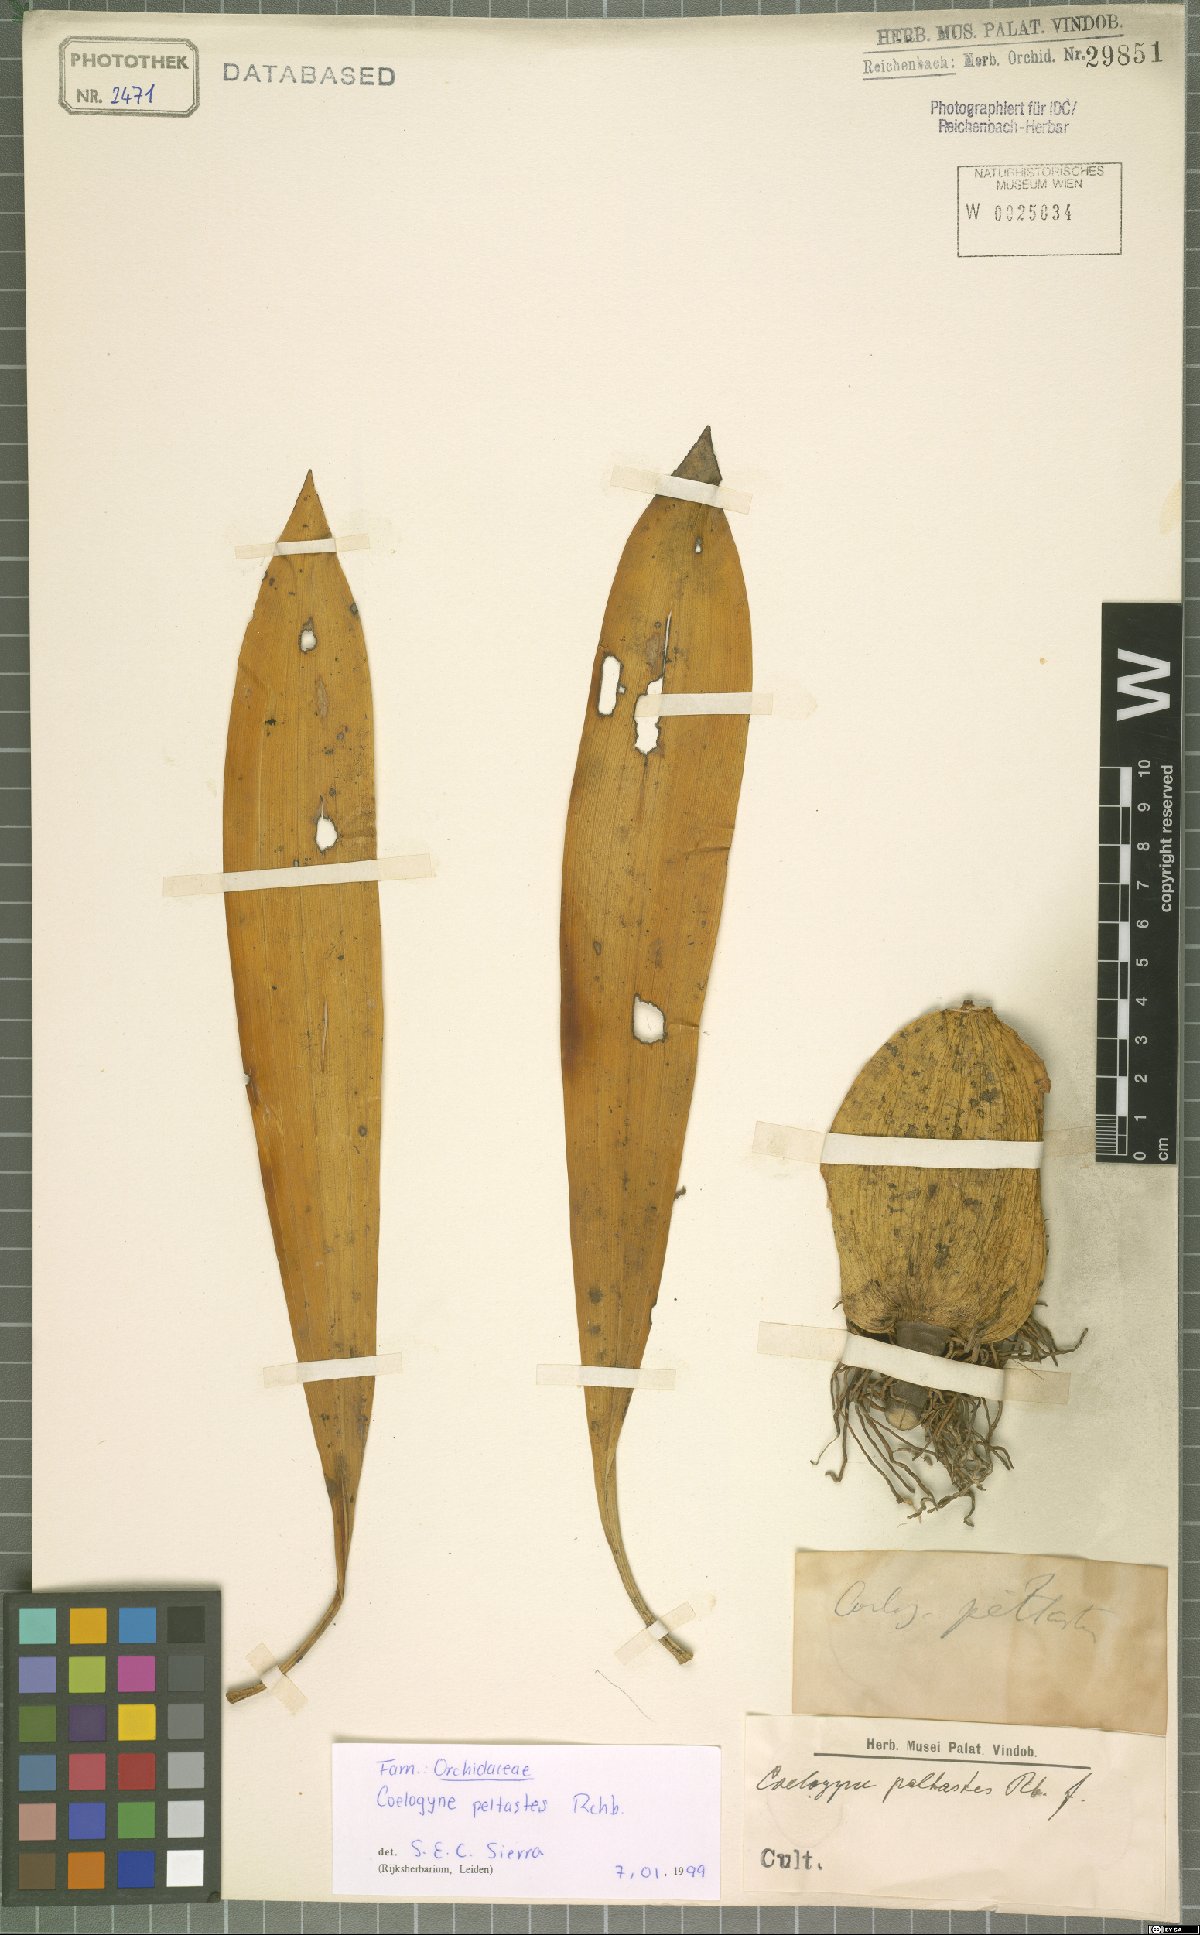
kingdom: Plantae
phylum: Tracheophyta
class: Liliopsida
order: Asparagales
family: Orchidaceae
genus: Coelogyne
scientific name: Coelogyne peltastes
